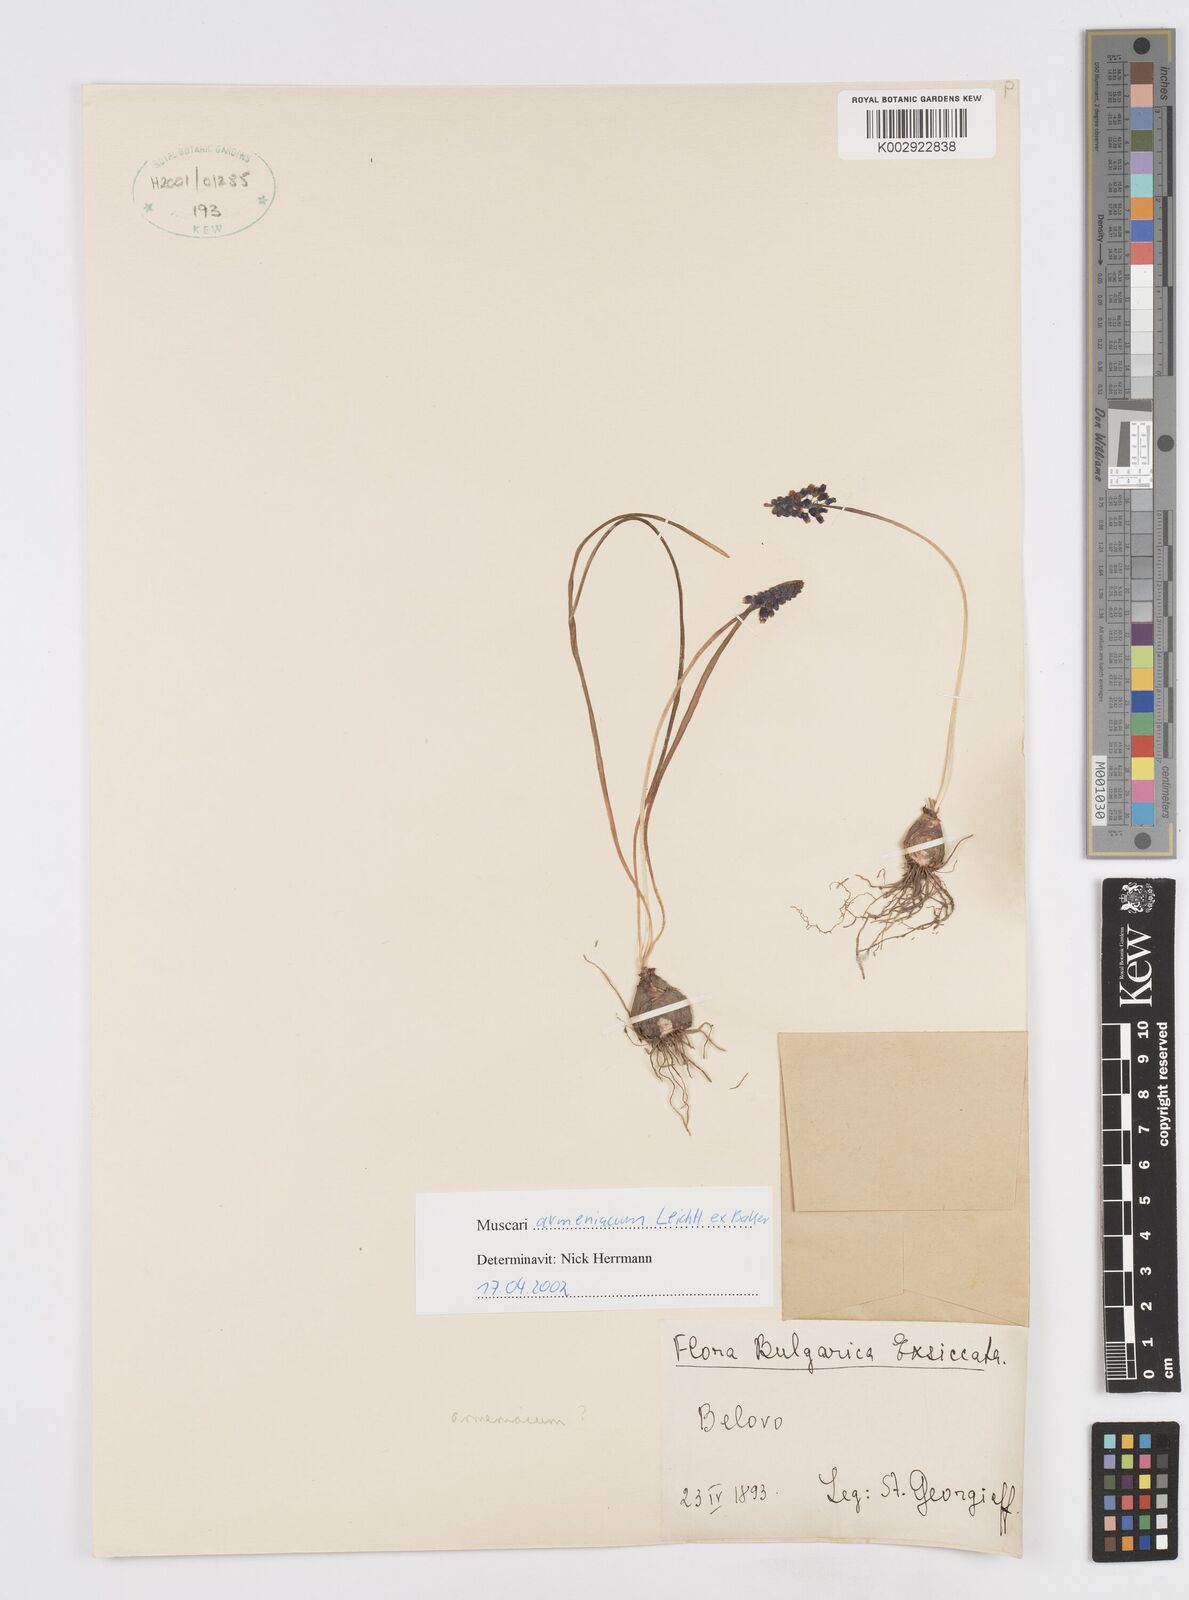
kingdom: Plantae
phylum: Tracheophyta
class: Liliopsida
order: Asparagales
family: Asparagaceae
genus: Muscari
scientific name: Muscari
